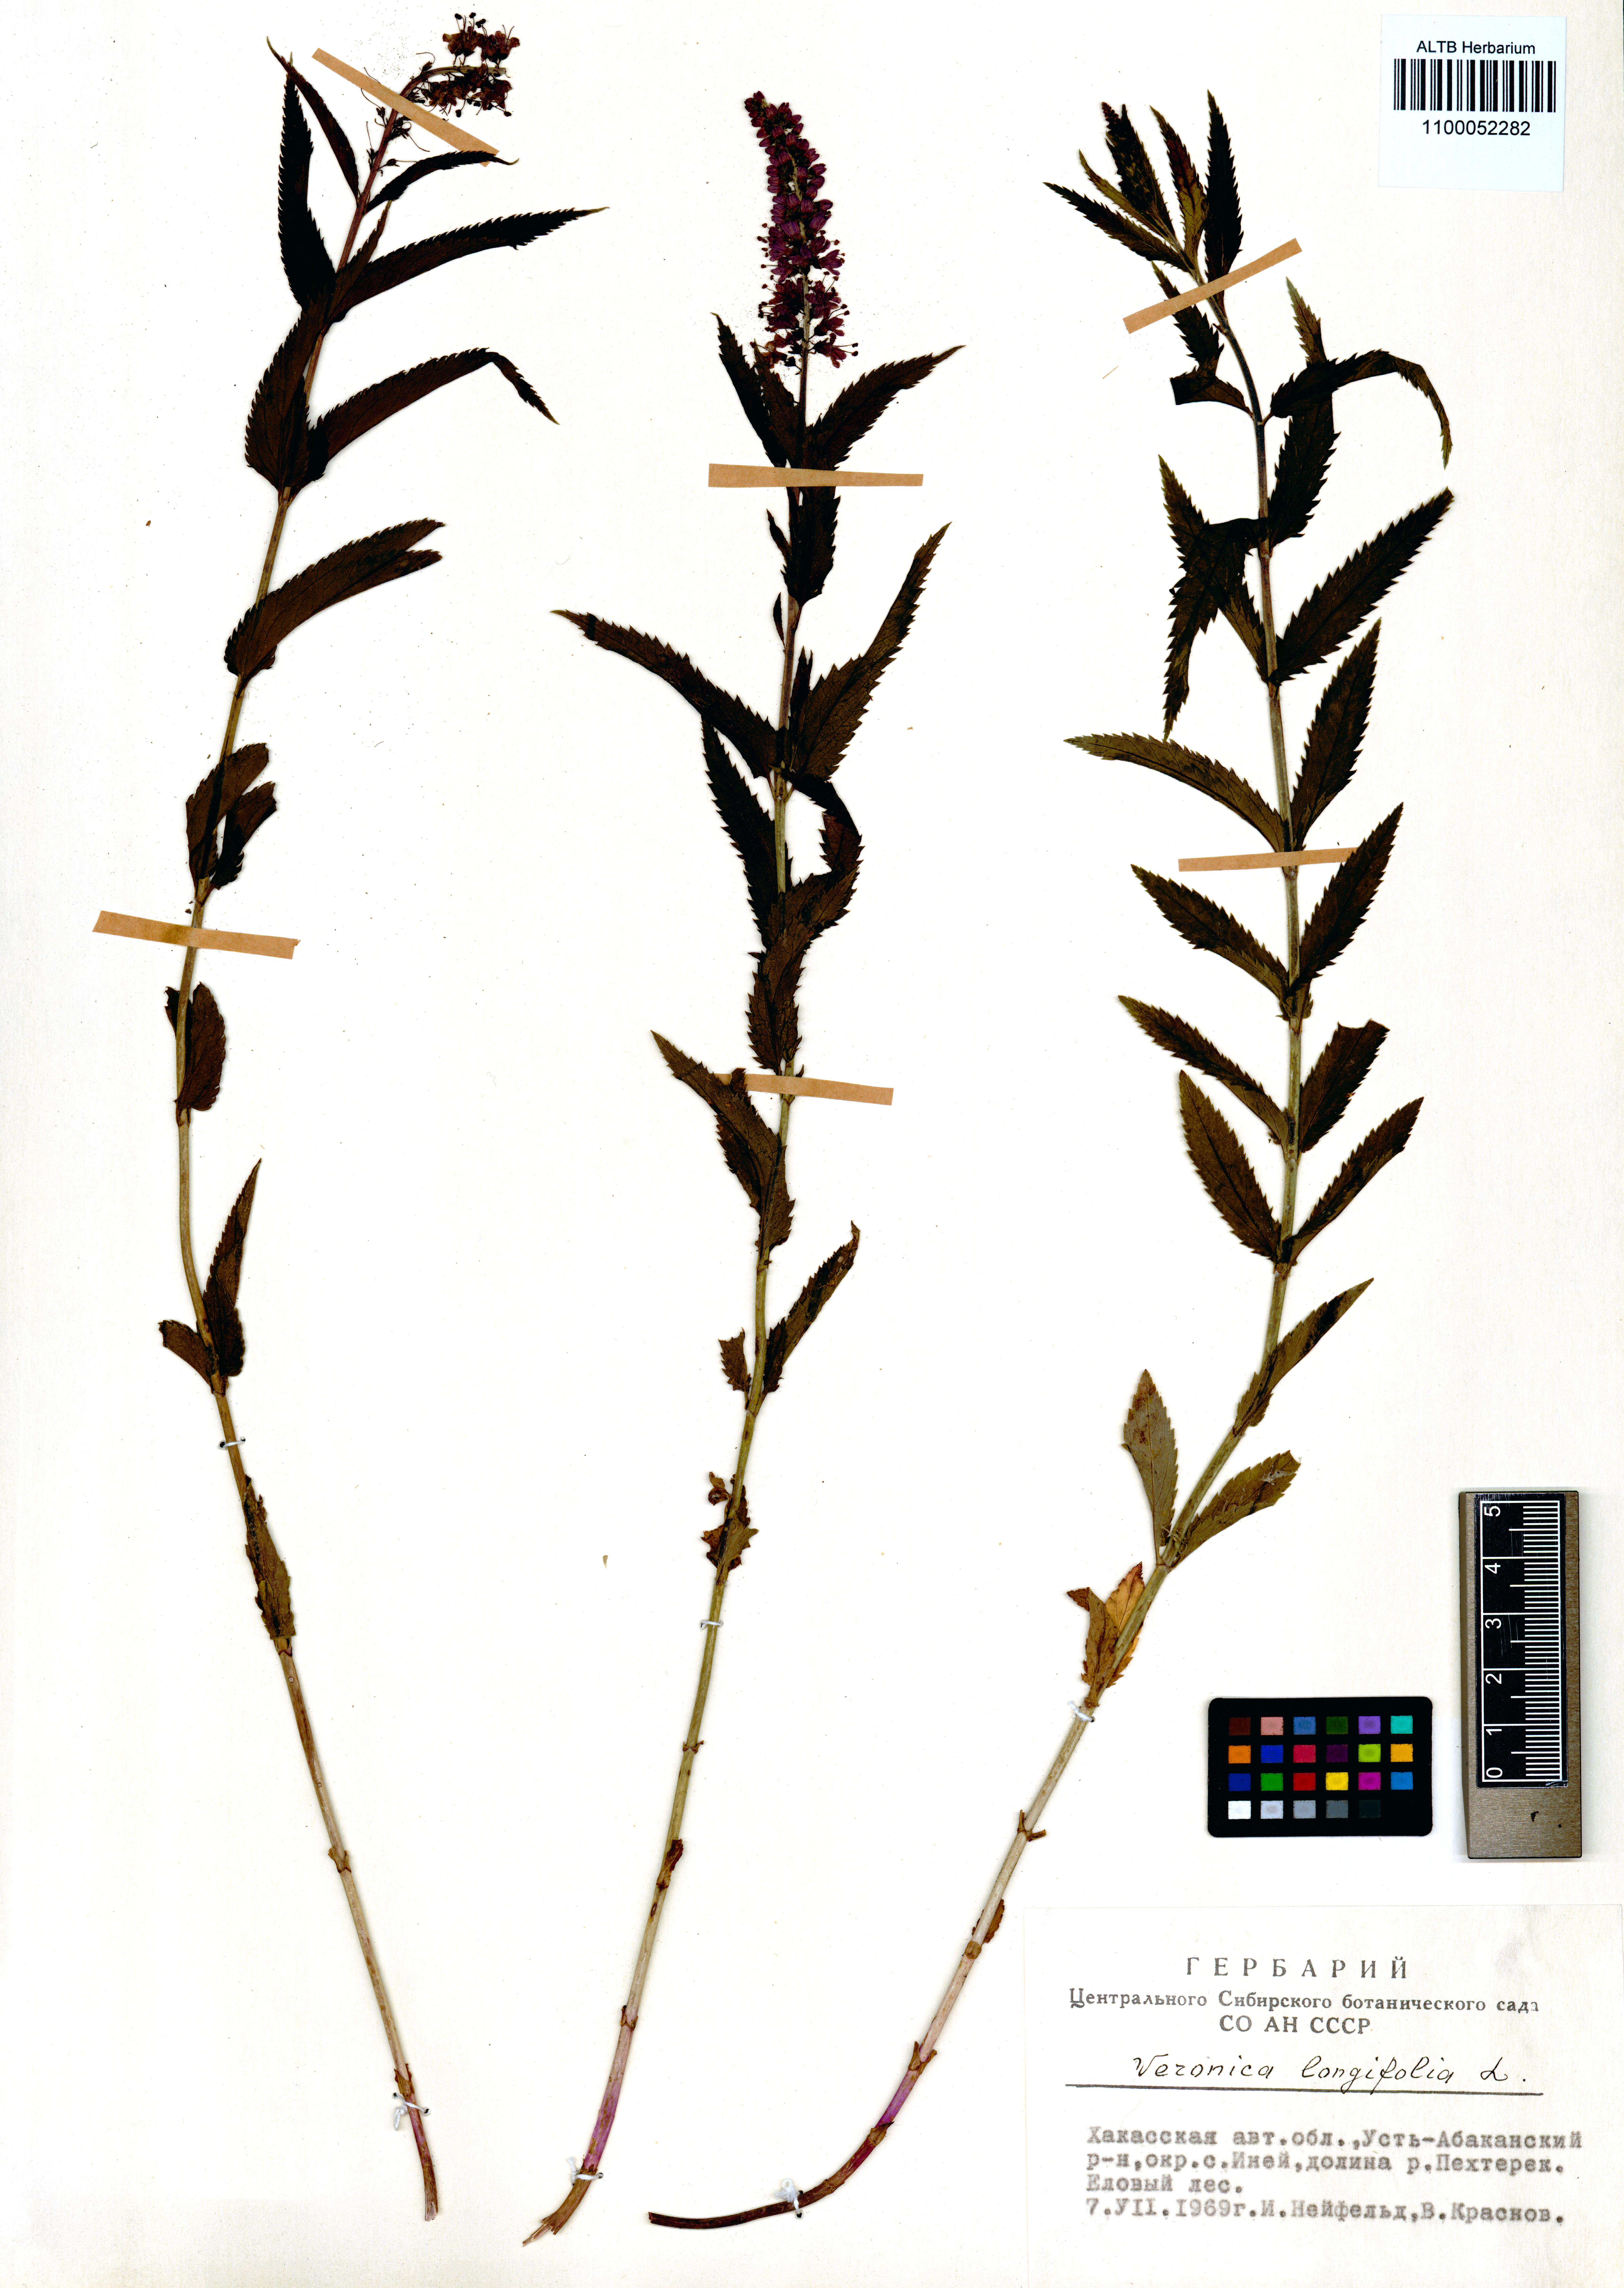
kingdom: Plantae
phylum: Tracheophyta
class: Magnoliopsida
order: Lamiales
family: Plantaginaceae
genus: Veronica
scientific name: Veronica longifolia
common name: Garden speedwell
